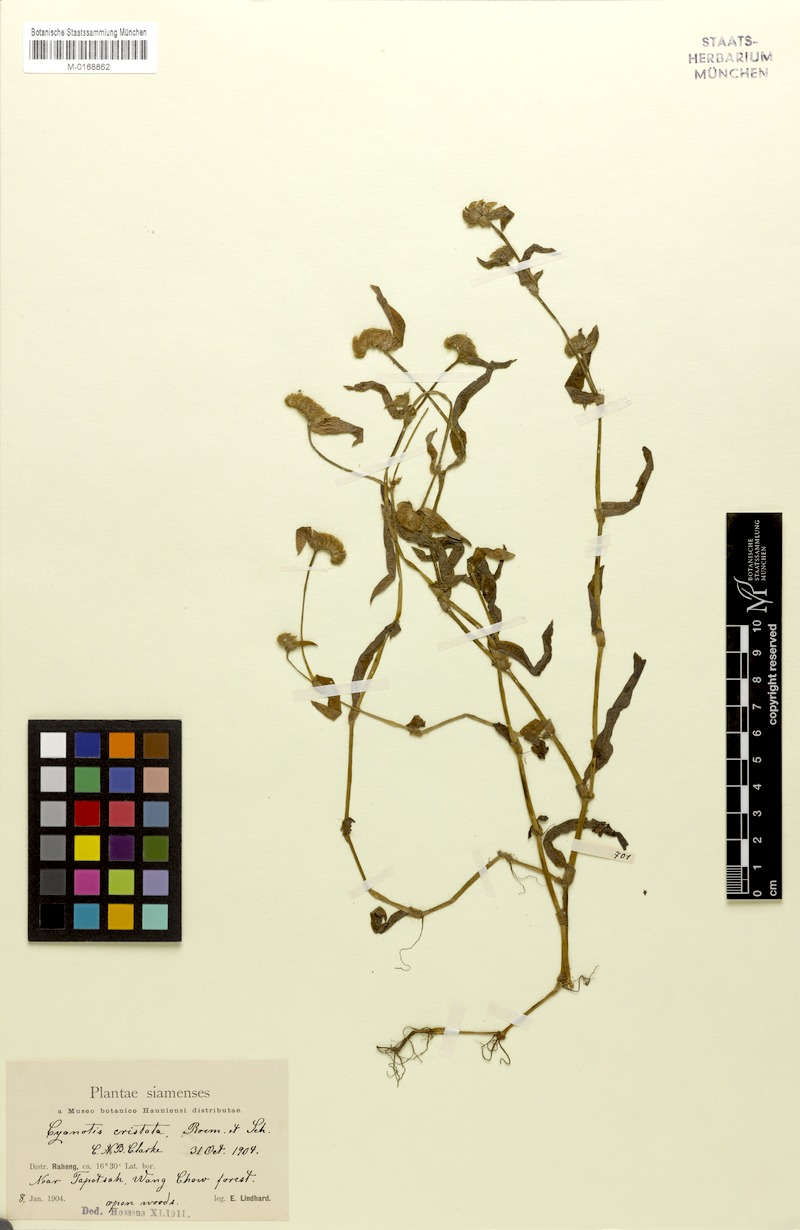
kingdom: Plantae
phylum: Tracheophyta
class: Liliopsida
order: Commelinales
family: Commelinaceae
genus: Cyanotis
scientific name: Cyanotis cristata
